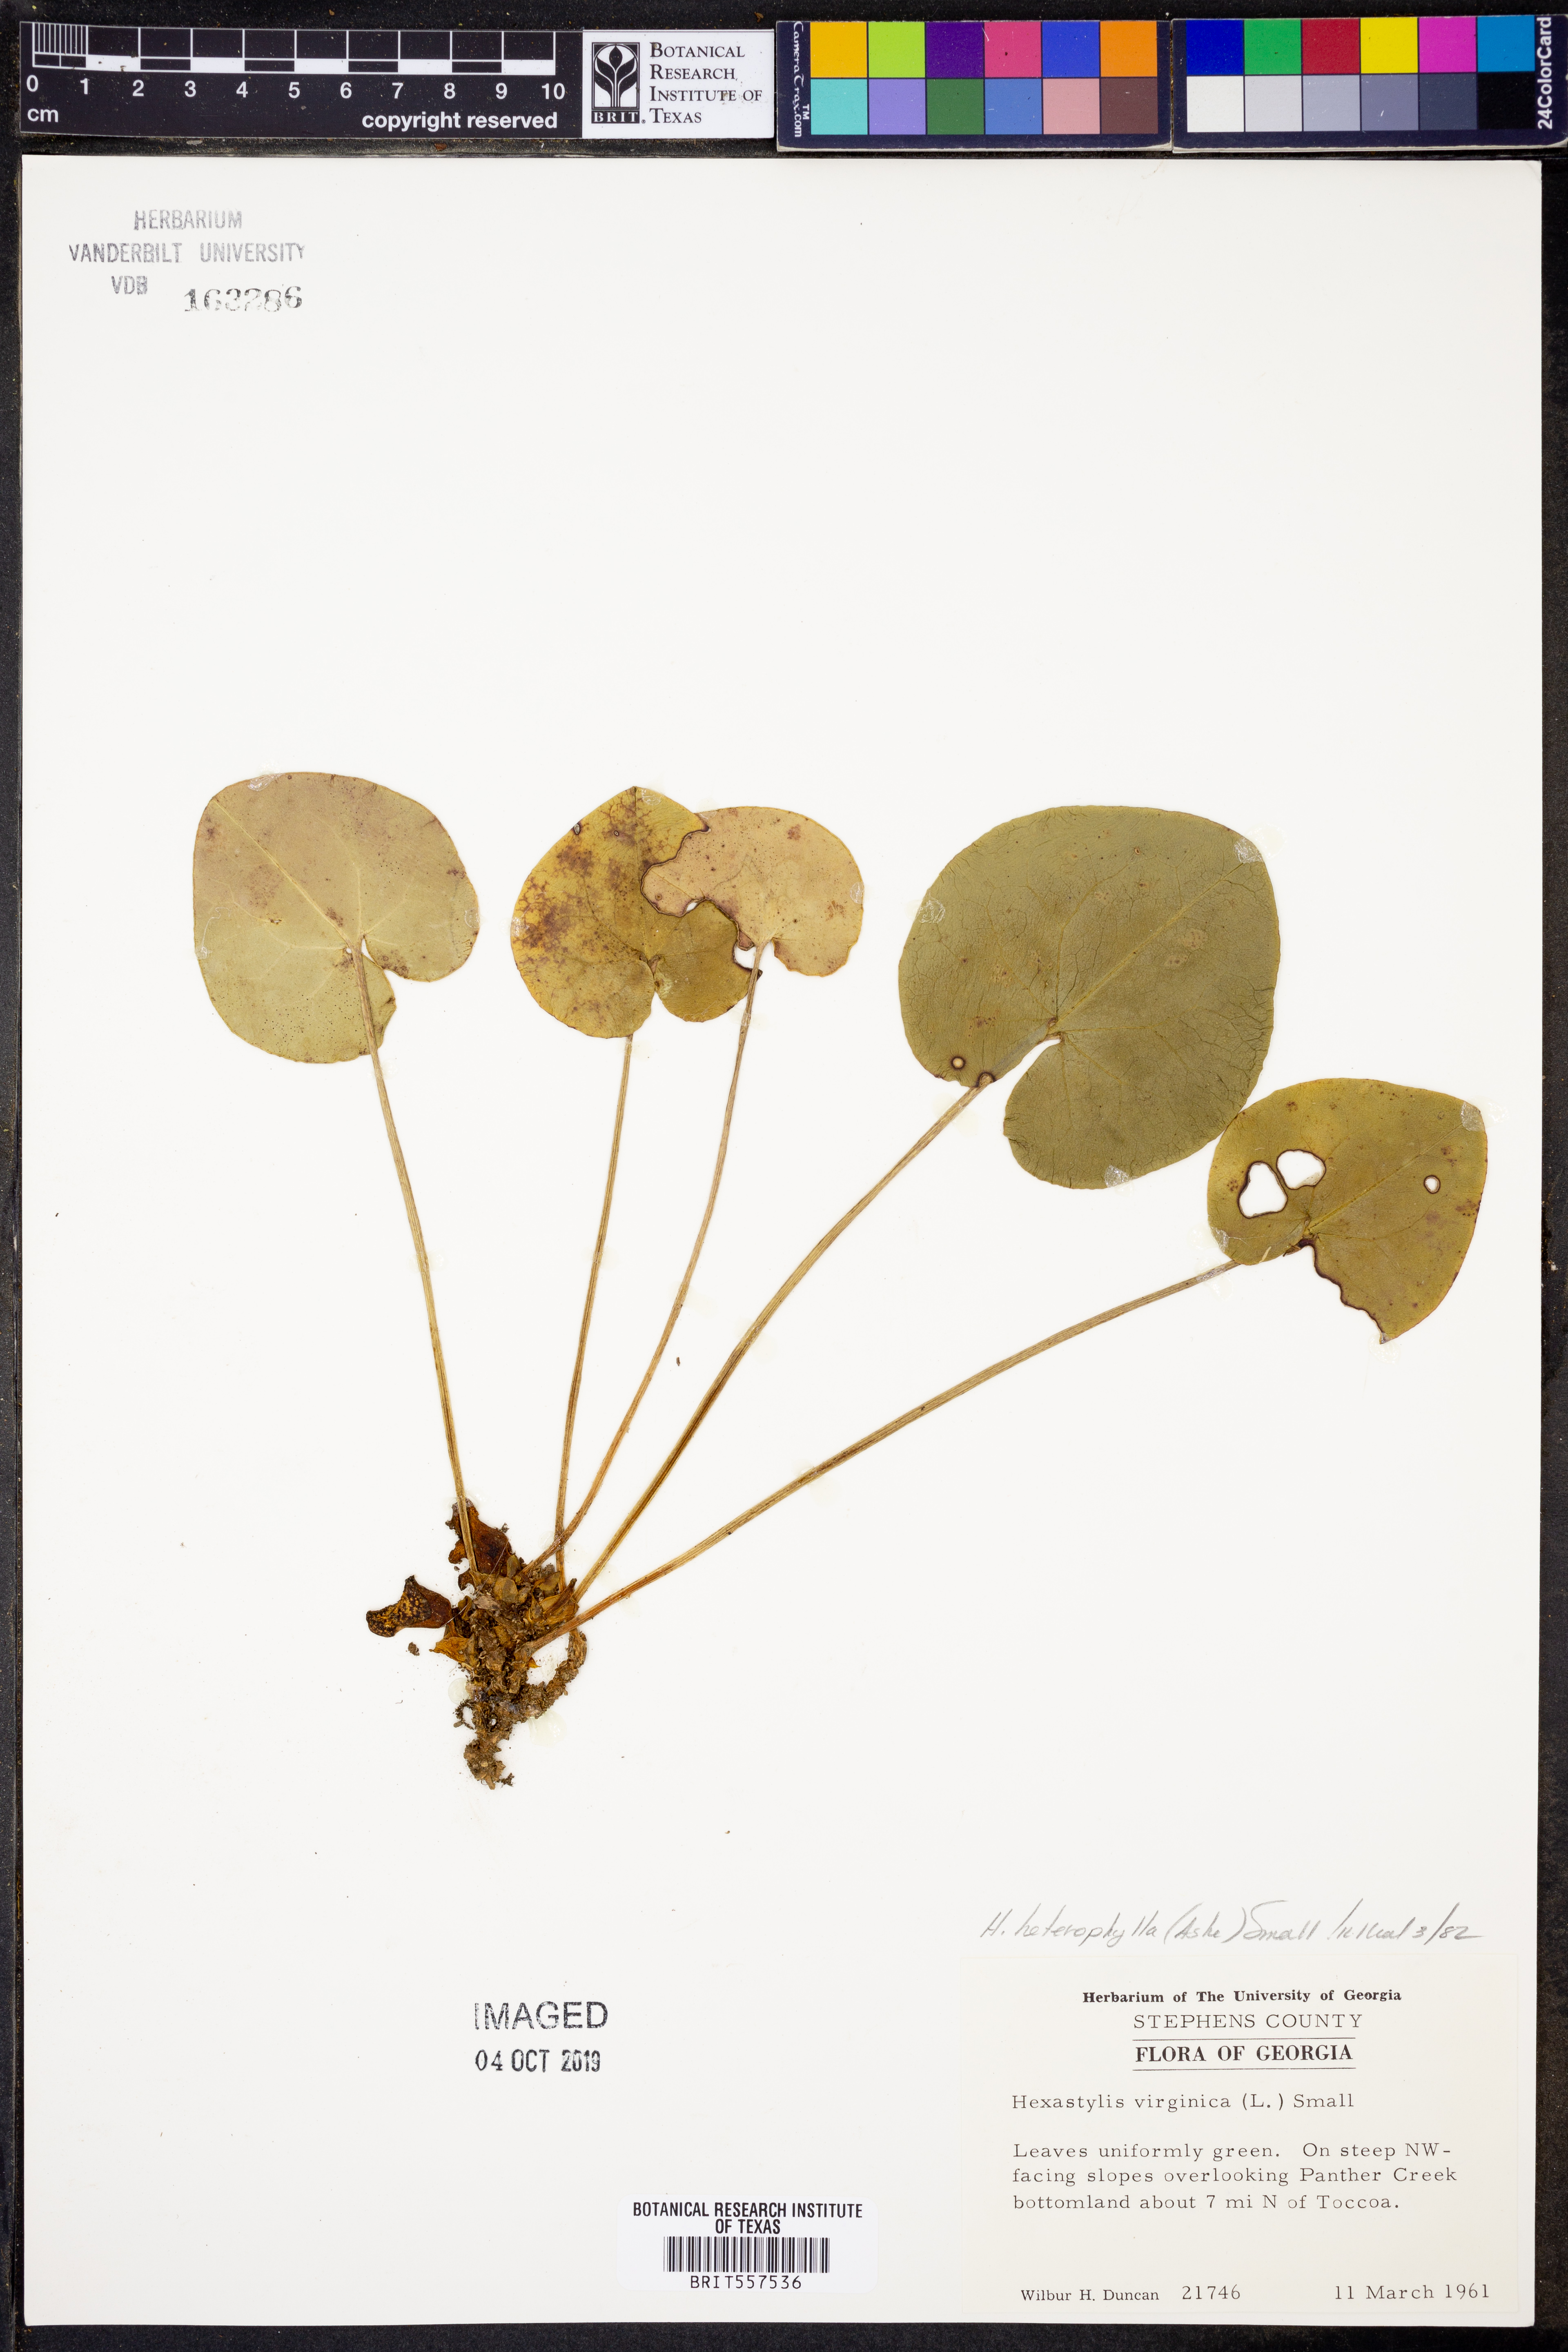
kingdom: Plantae
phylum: Tracheophyta
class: Magnoliopsida
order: Piperales
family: Aristolochiaceae
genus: Hexastylis
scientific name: Hexastylis heterophylla
